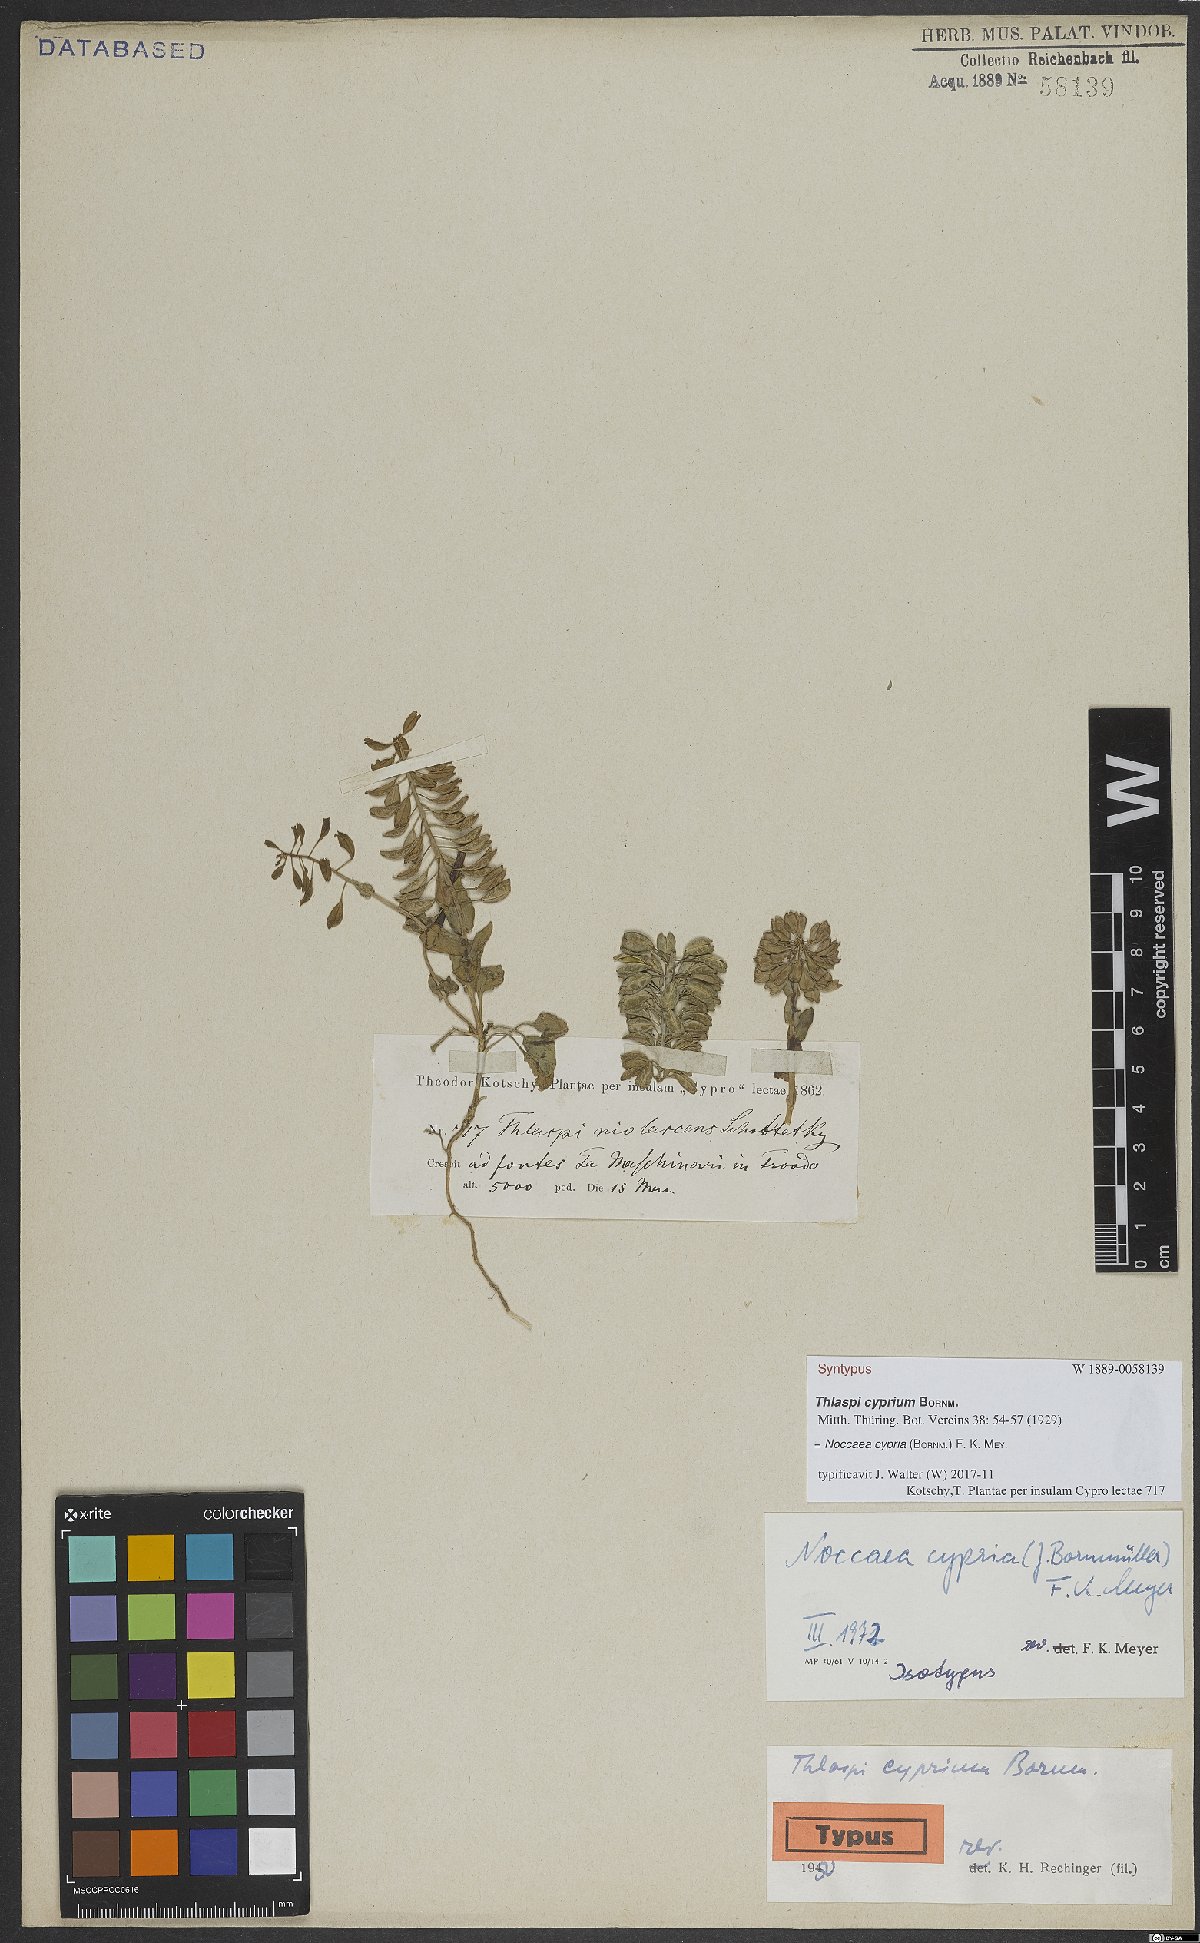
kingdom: Plantae
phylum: Tracheophyta
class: Magnoliopsida
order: Brassicales
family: Brassicaceae
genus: Noccaea
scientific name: Noccaea cypria
